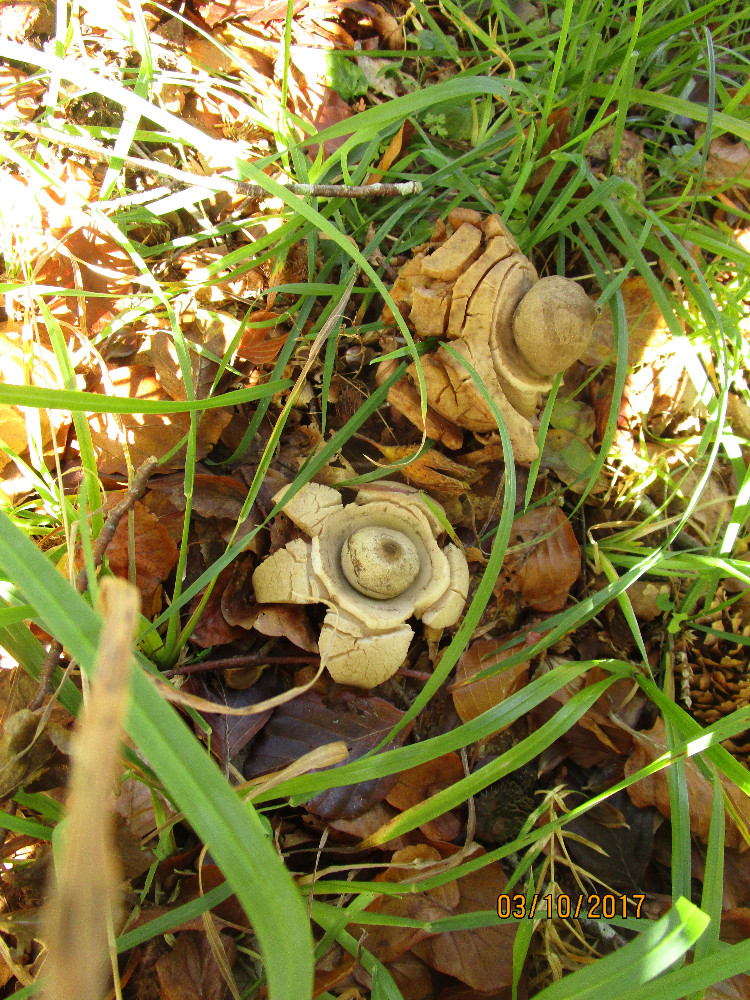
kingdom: Fungi
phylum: Basidiomycota
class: Agaricomycetes
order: Geastrales
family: Geastraceae
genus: Geastrum
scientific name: Geastrum michelianum
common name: kødet stjernebold
